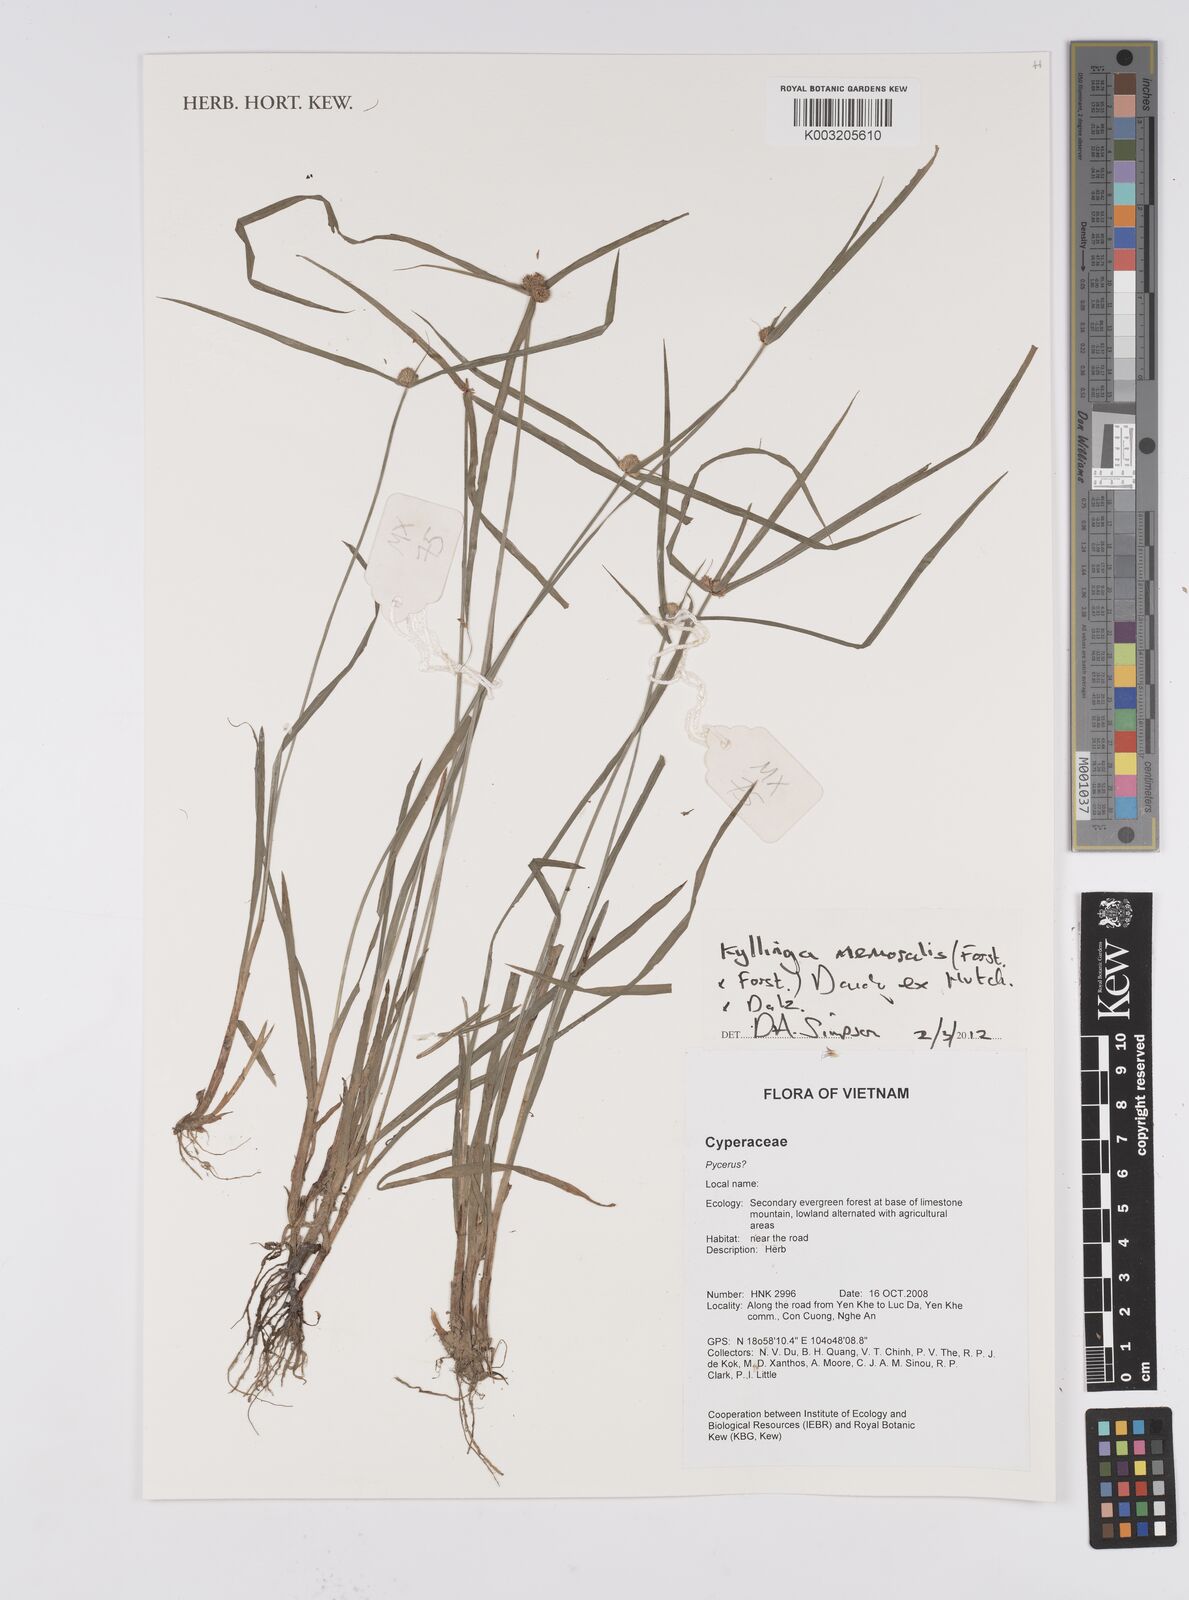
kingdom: Plantae
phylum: Tracheophyta
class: Liliopsida
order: Poales
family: Cyperaceae
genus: Cyperus
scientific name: Cyperus
